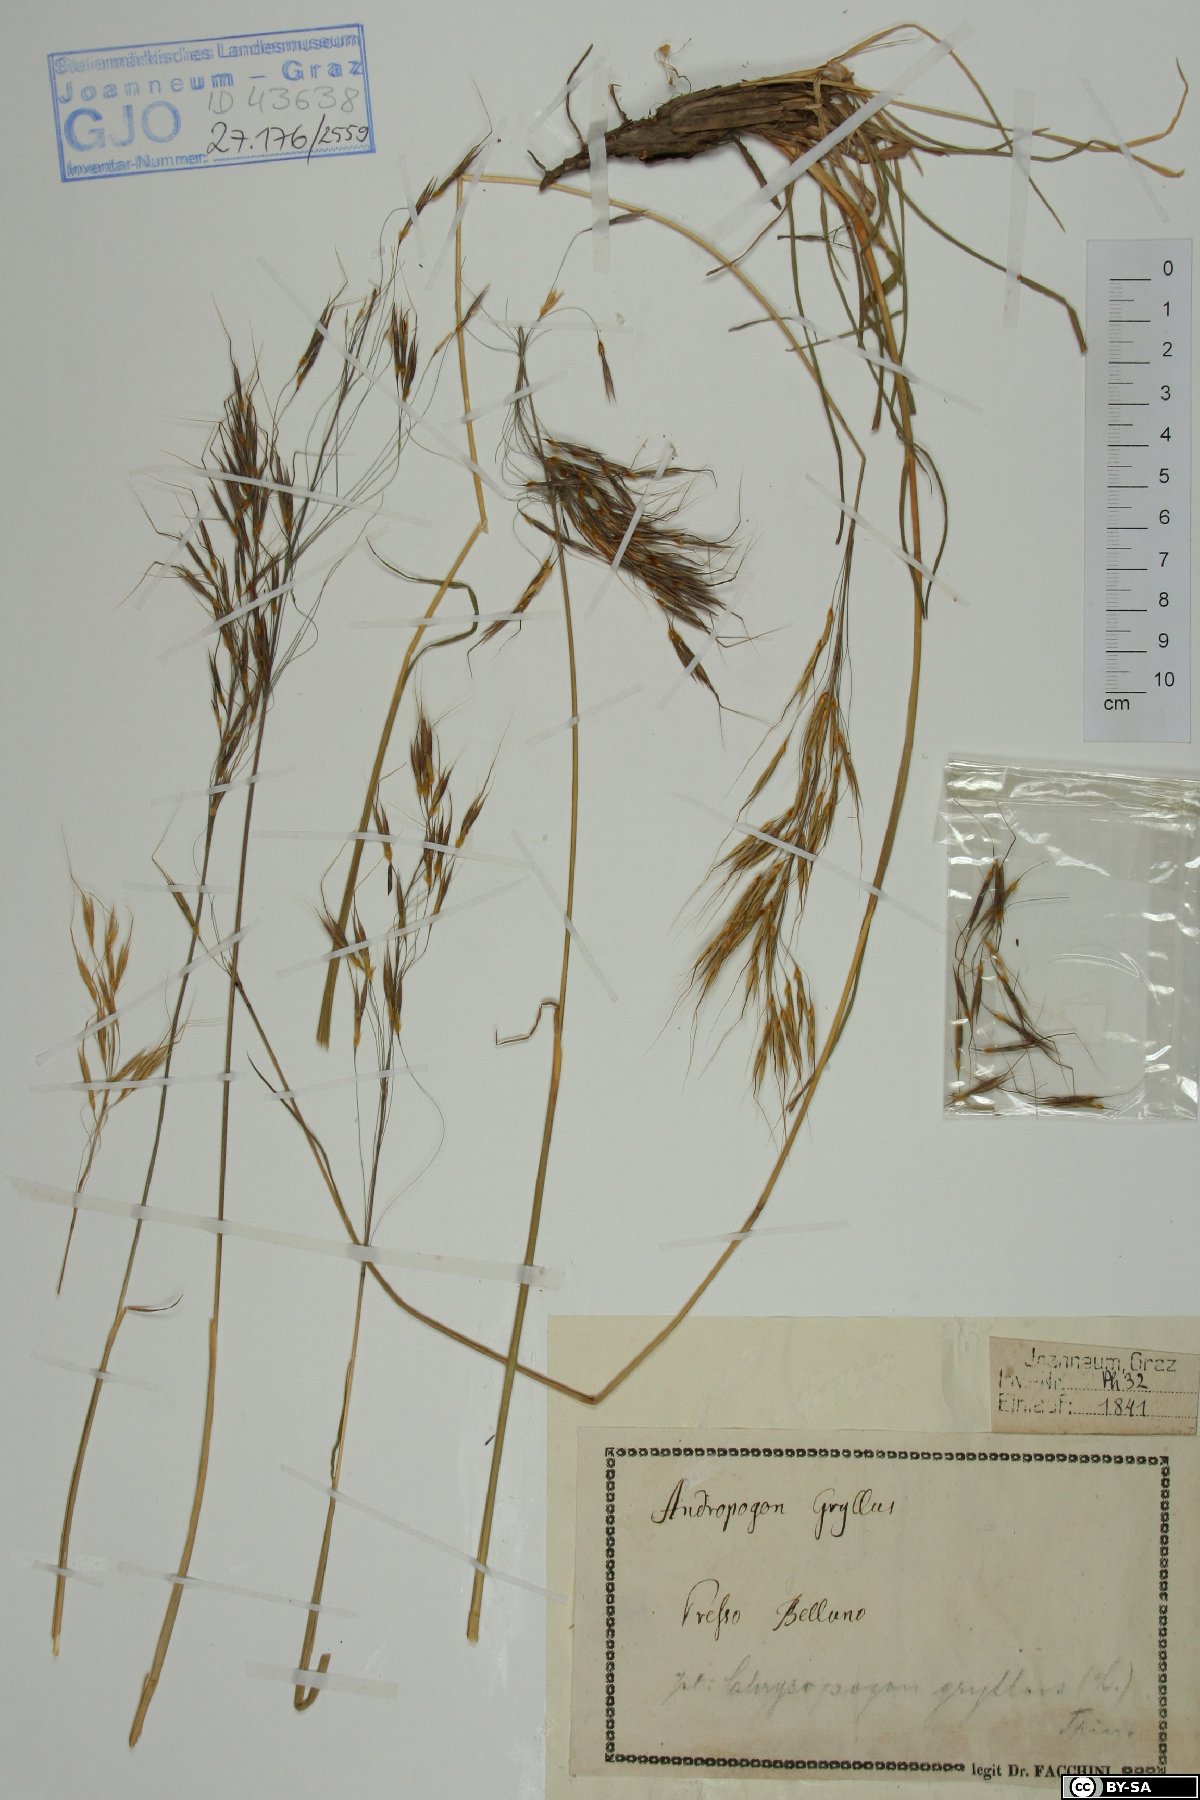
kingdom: Plantae
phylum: Tracheophyta
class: Liliopsida
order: Poales
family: Poaceae
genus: Chrysopogon
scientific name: Chrysopogon gryllus
